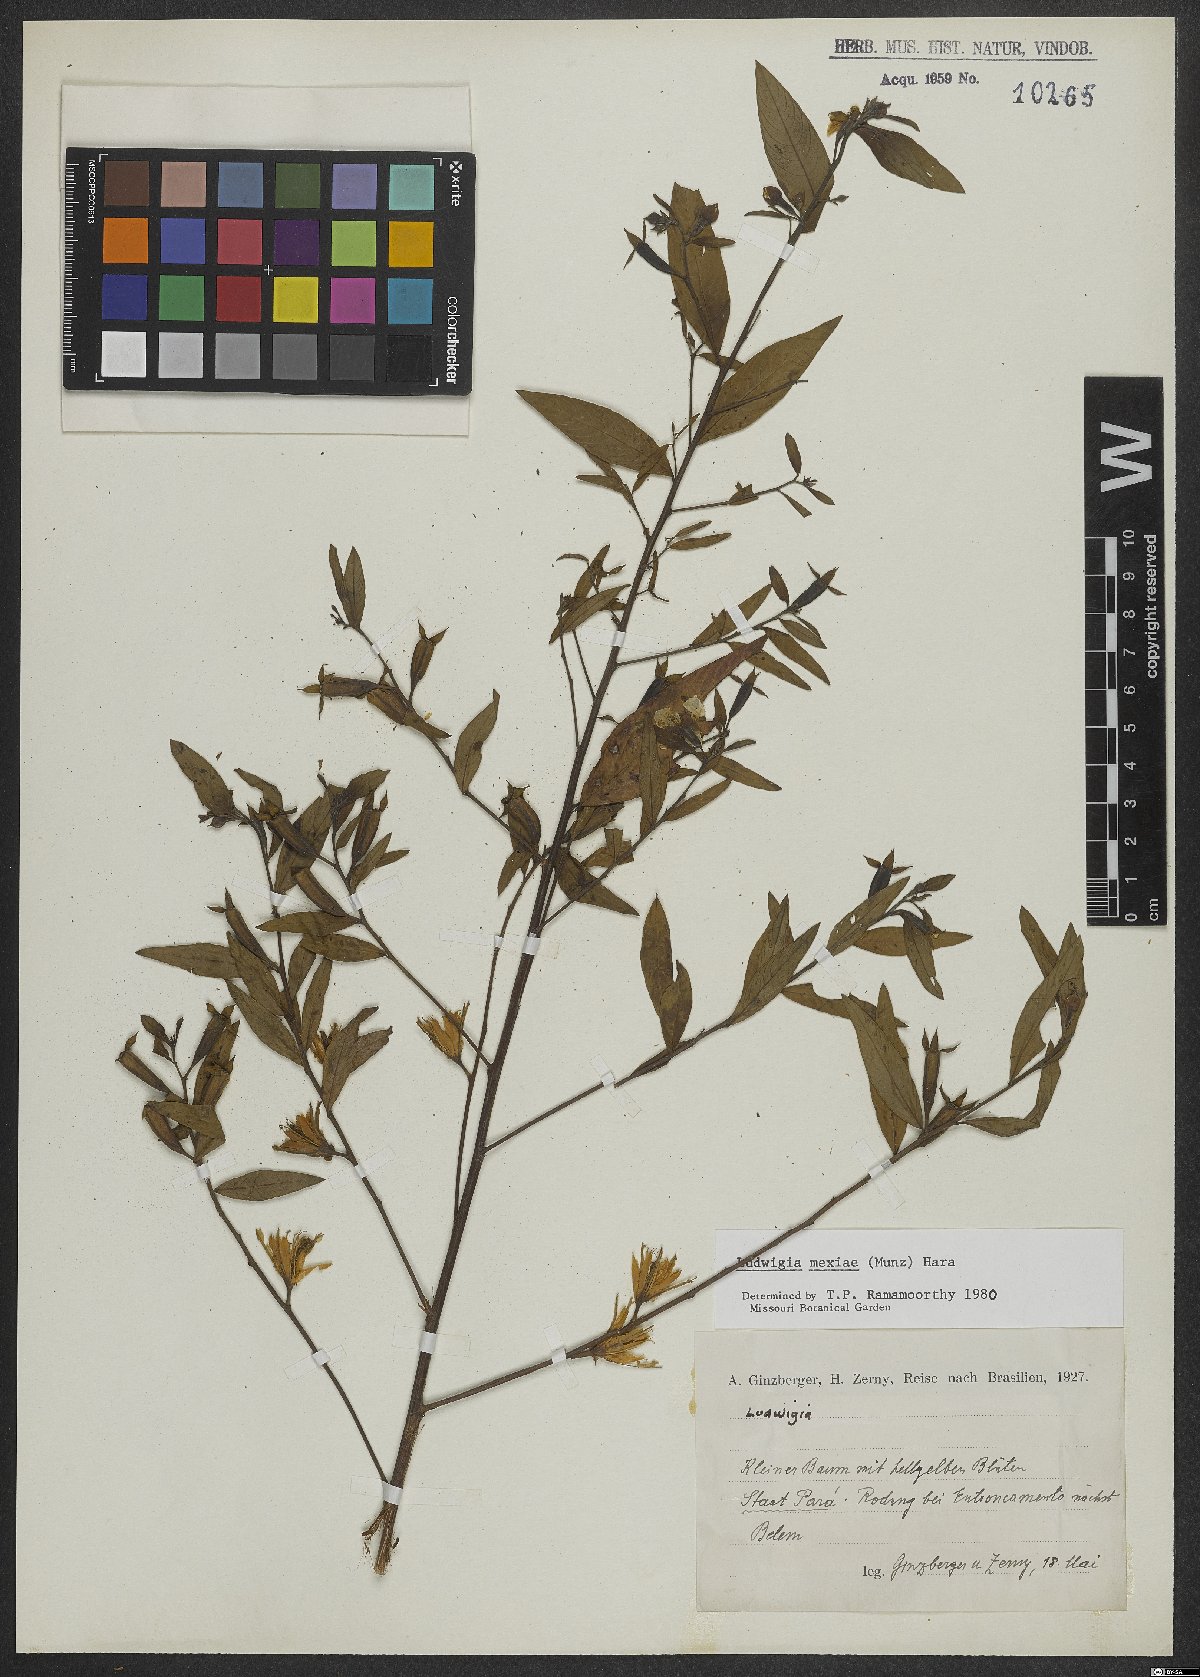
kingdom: Plantae
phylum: Tracheophyta
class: Magnoliopsida
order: Myrtales
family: Onagraceae
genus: Ludwigia
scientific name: Ludwigia nervosa
